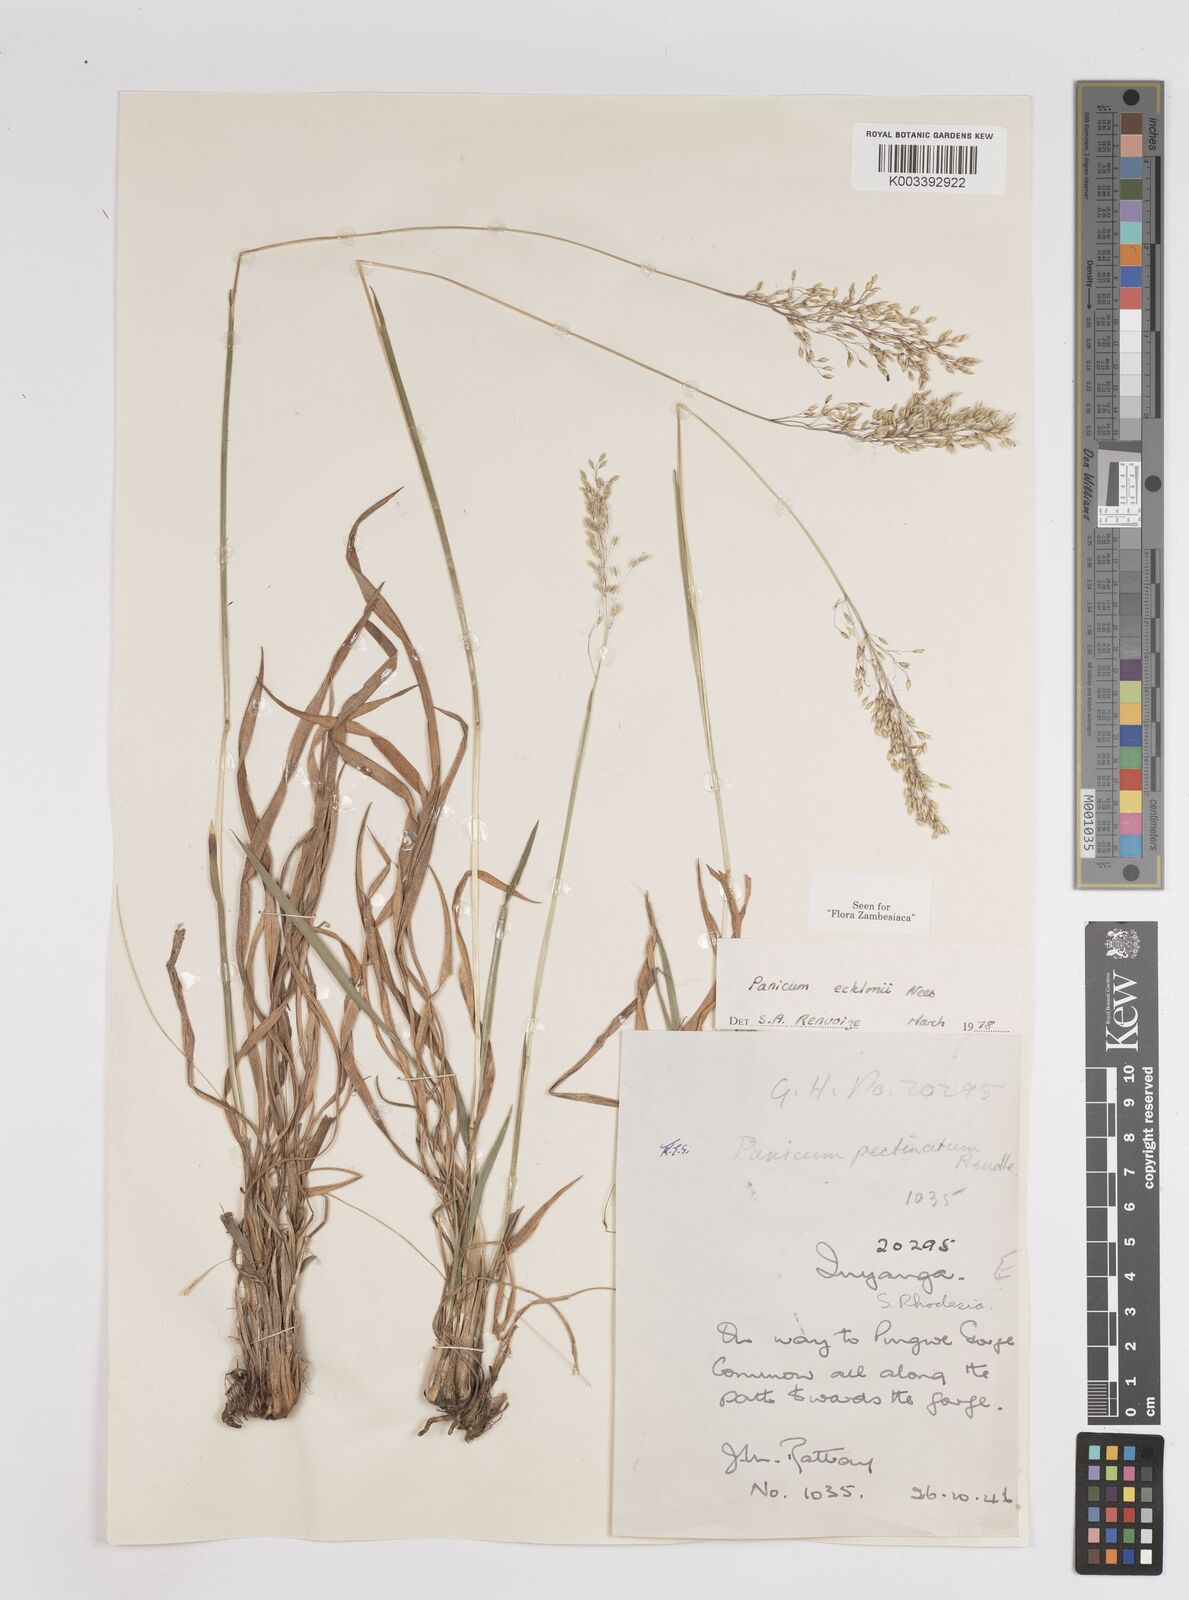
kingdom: Plantae
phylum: Tracheophyta
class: Liliopsida
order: Poales
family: Poaceae
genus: Adenochloa
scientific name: Adenochloa ecklonii
